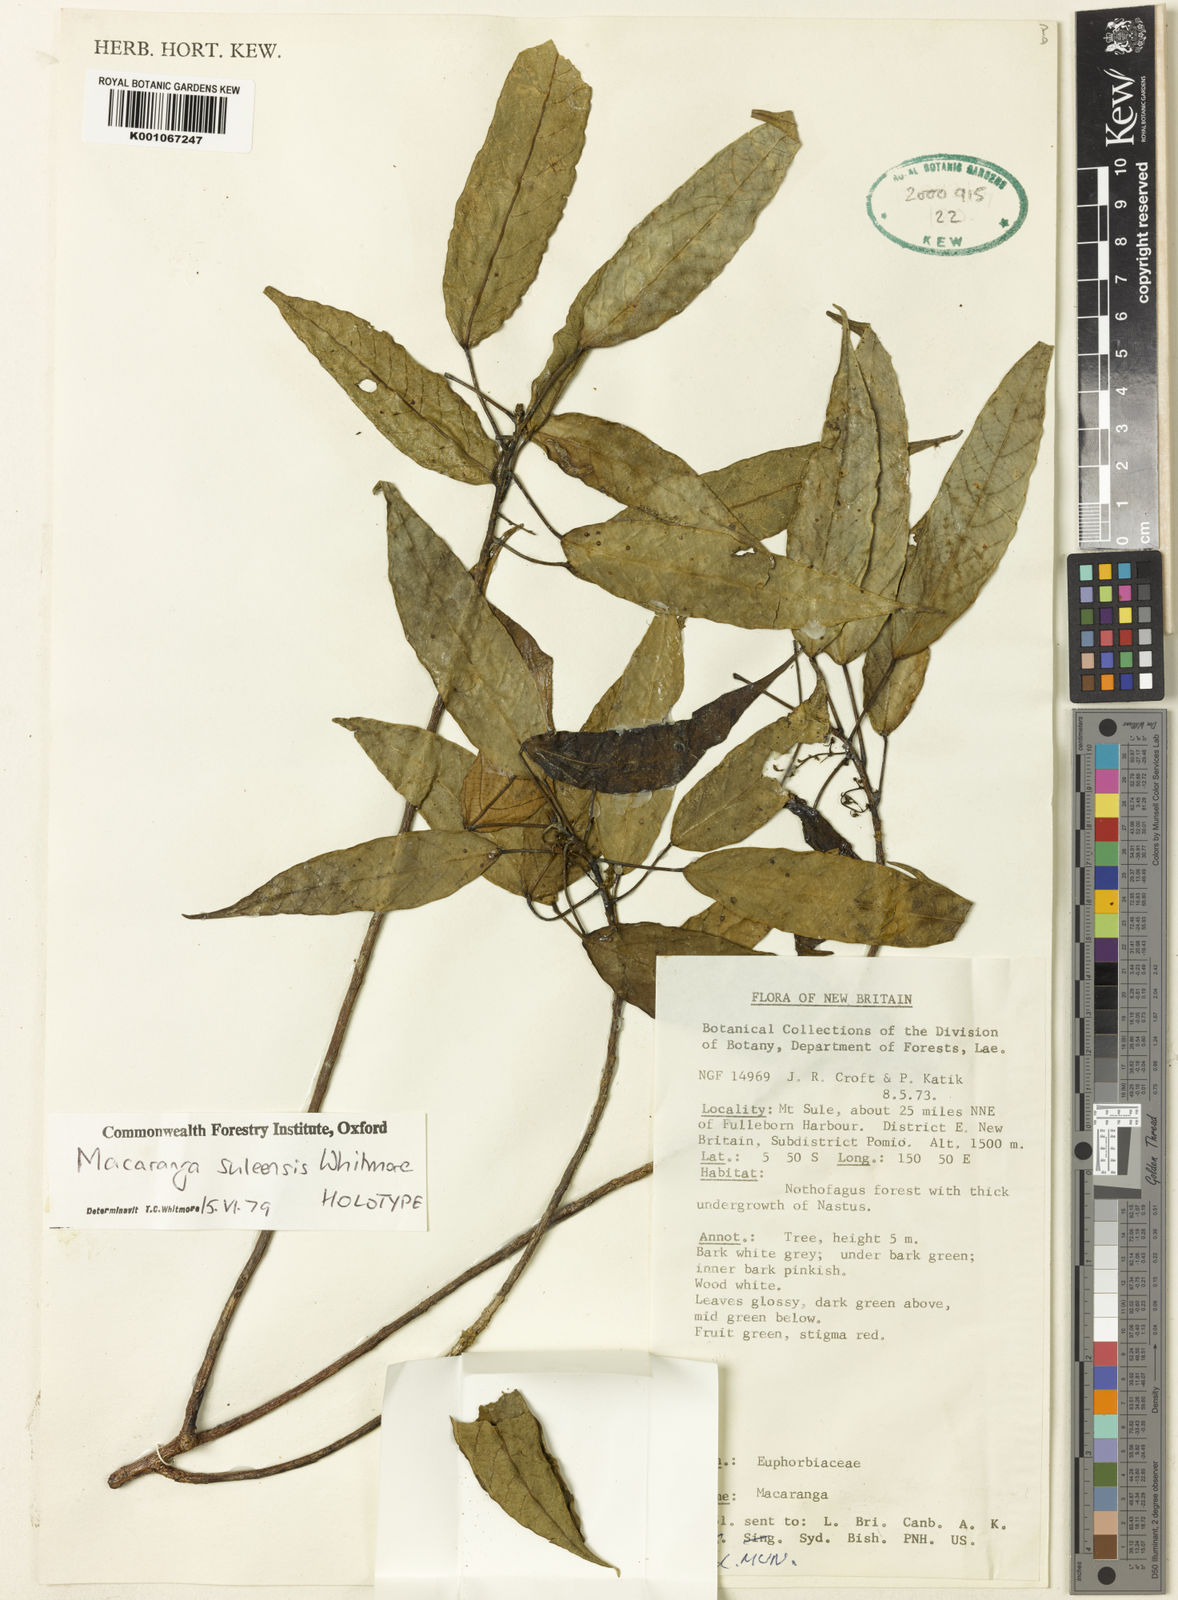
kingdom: Plantae
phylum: Tracheophyta
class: Magnoliopsida
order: Malpighiales
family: Euphorbiaceae
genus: Macaranga
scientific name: Macaranga suleensis
